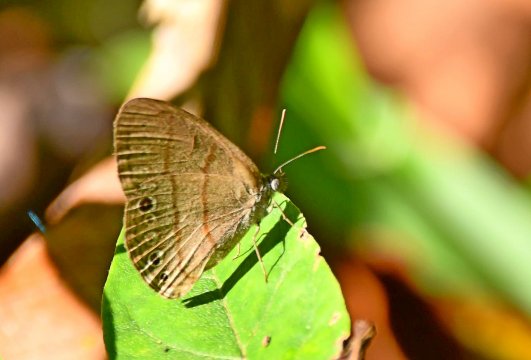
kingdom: Animalia
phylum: Arthropoda
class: Insecta
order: Lepidoptera
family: Nymphalidae
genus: Hermeuptychia
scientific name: Hermeuptychia hermes
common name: Hermes Satyr
